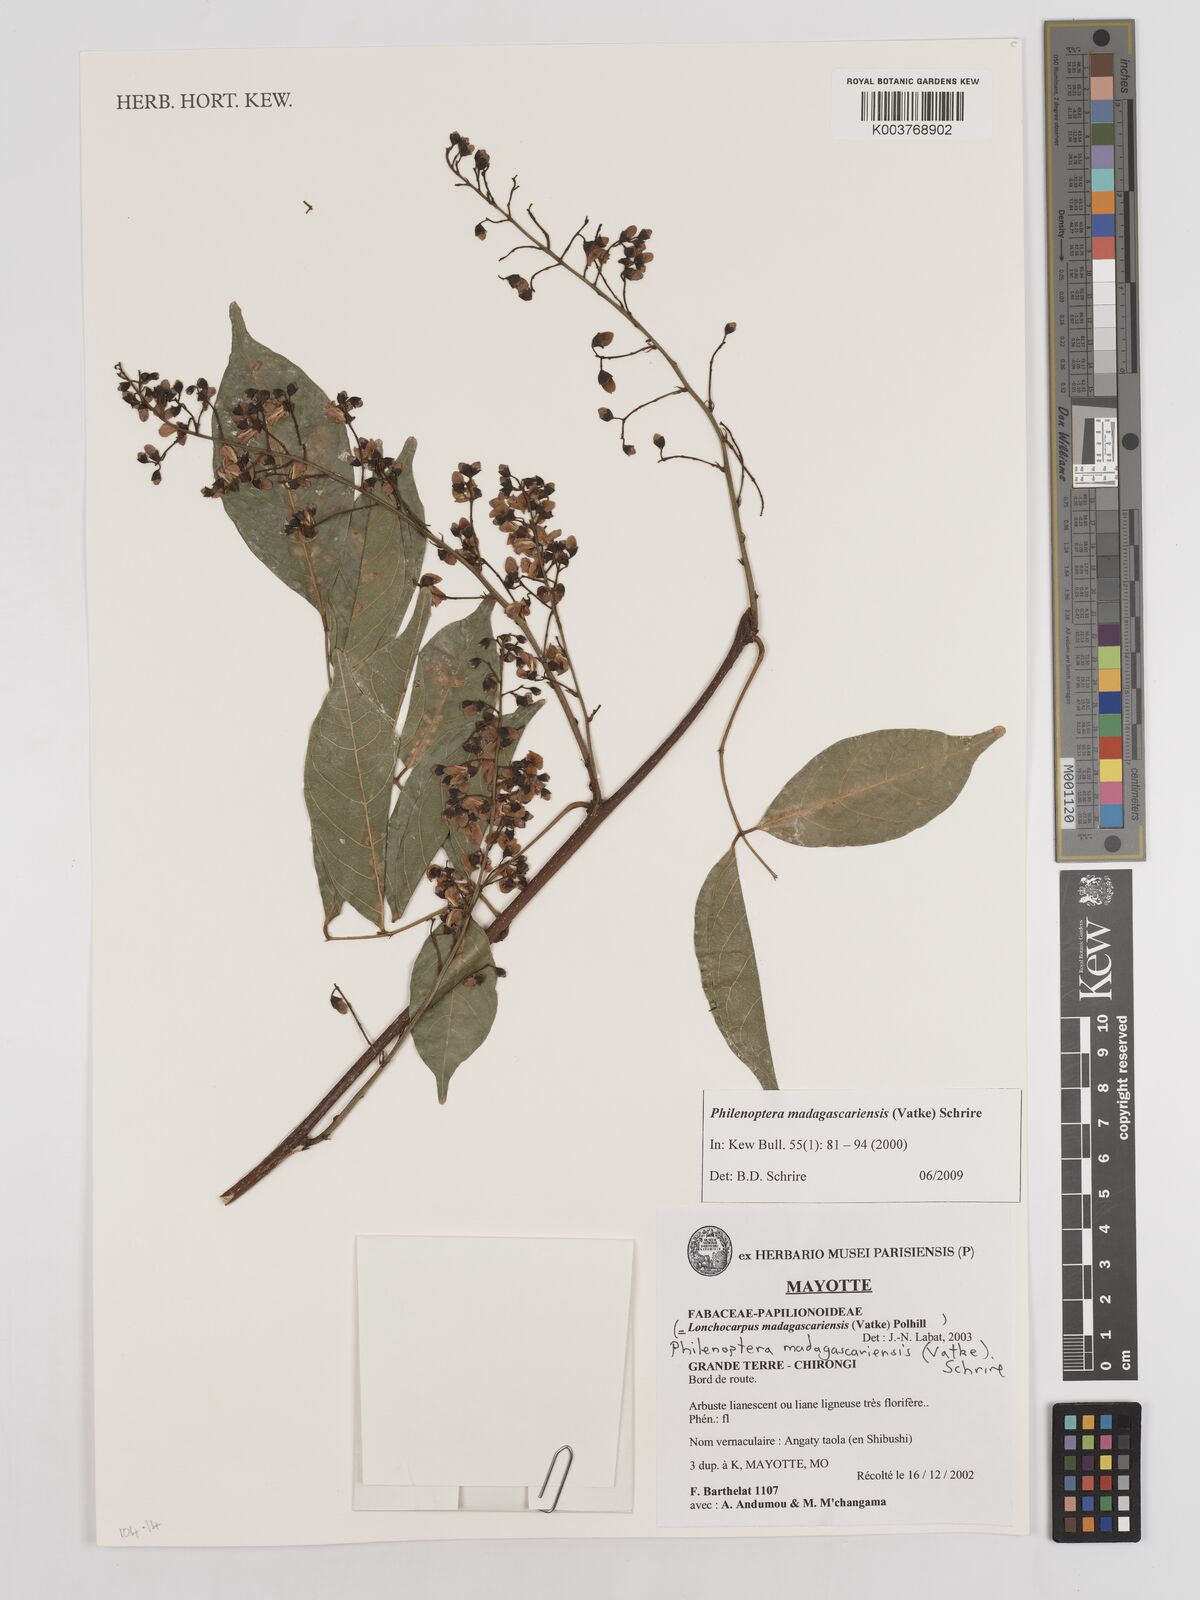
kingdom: Plantae
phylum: Tracheophyta
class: Magnoliopsida
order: Fabales
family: Fabaceae
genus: Lonchocarpus
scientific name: Lonchocarpus madagascariensis
